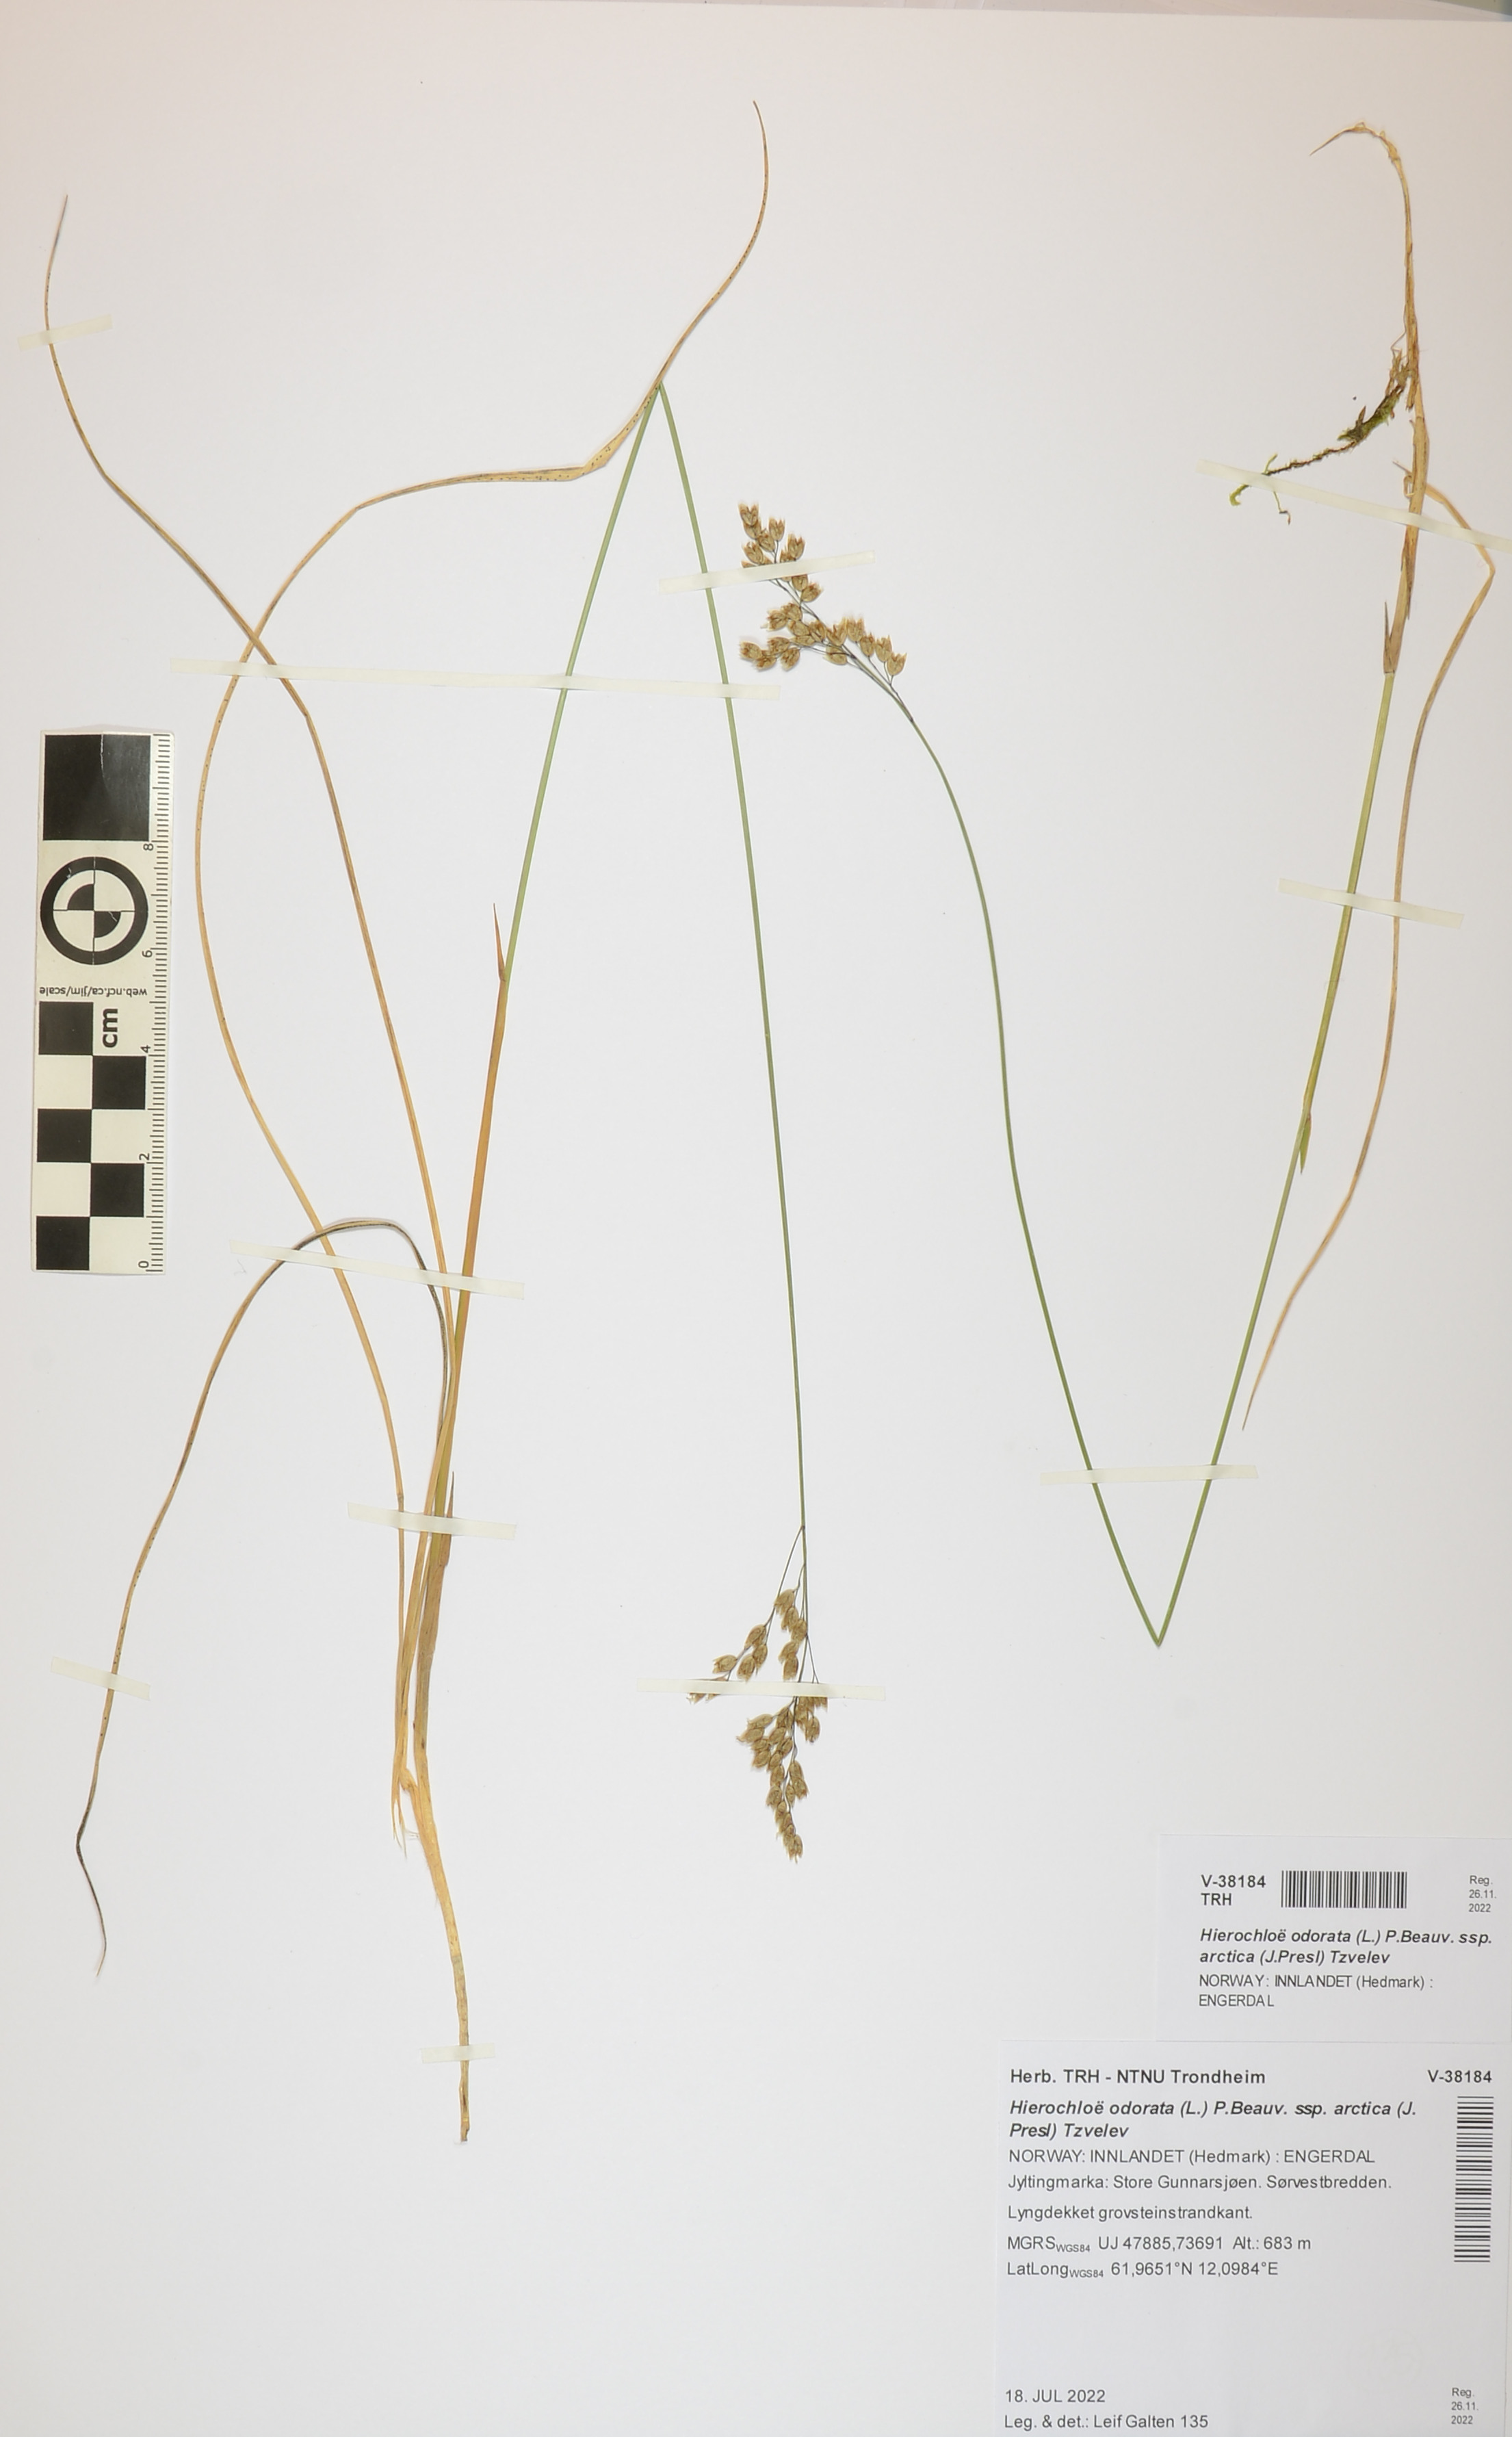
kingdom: Plantae
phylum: Tracheophyta
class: Liliopsida
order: Poales
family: Poaceae
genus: Anthoxanthum
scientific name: Anthoxanthum nitens
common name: Holy grass
